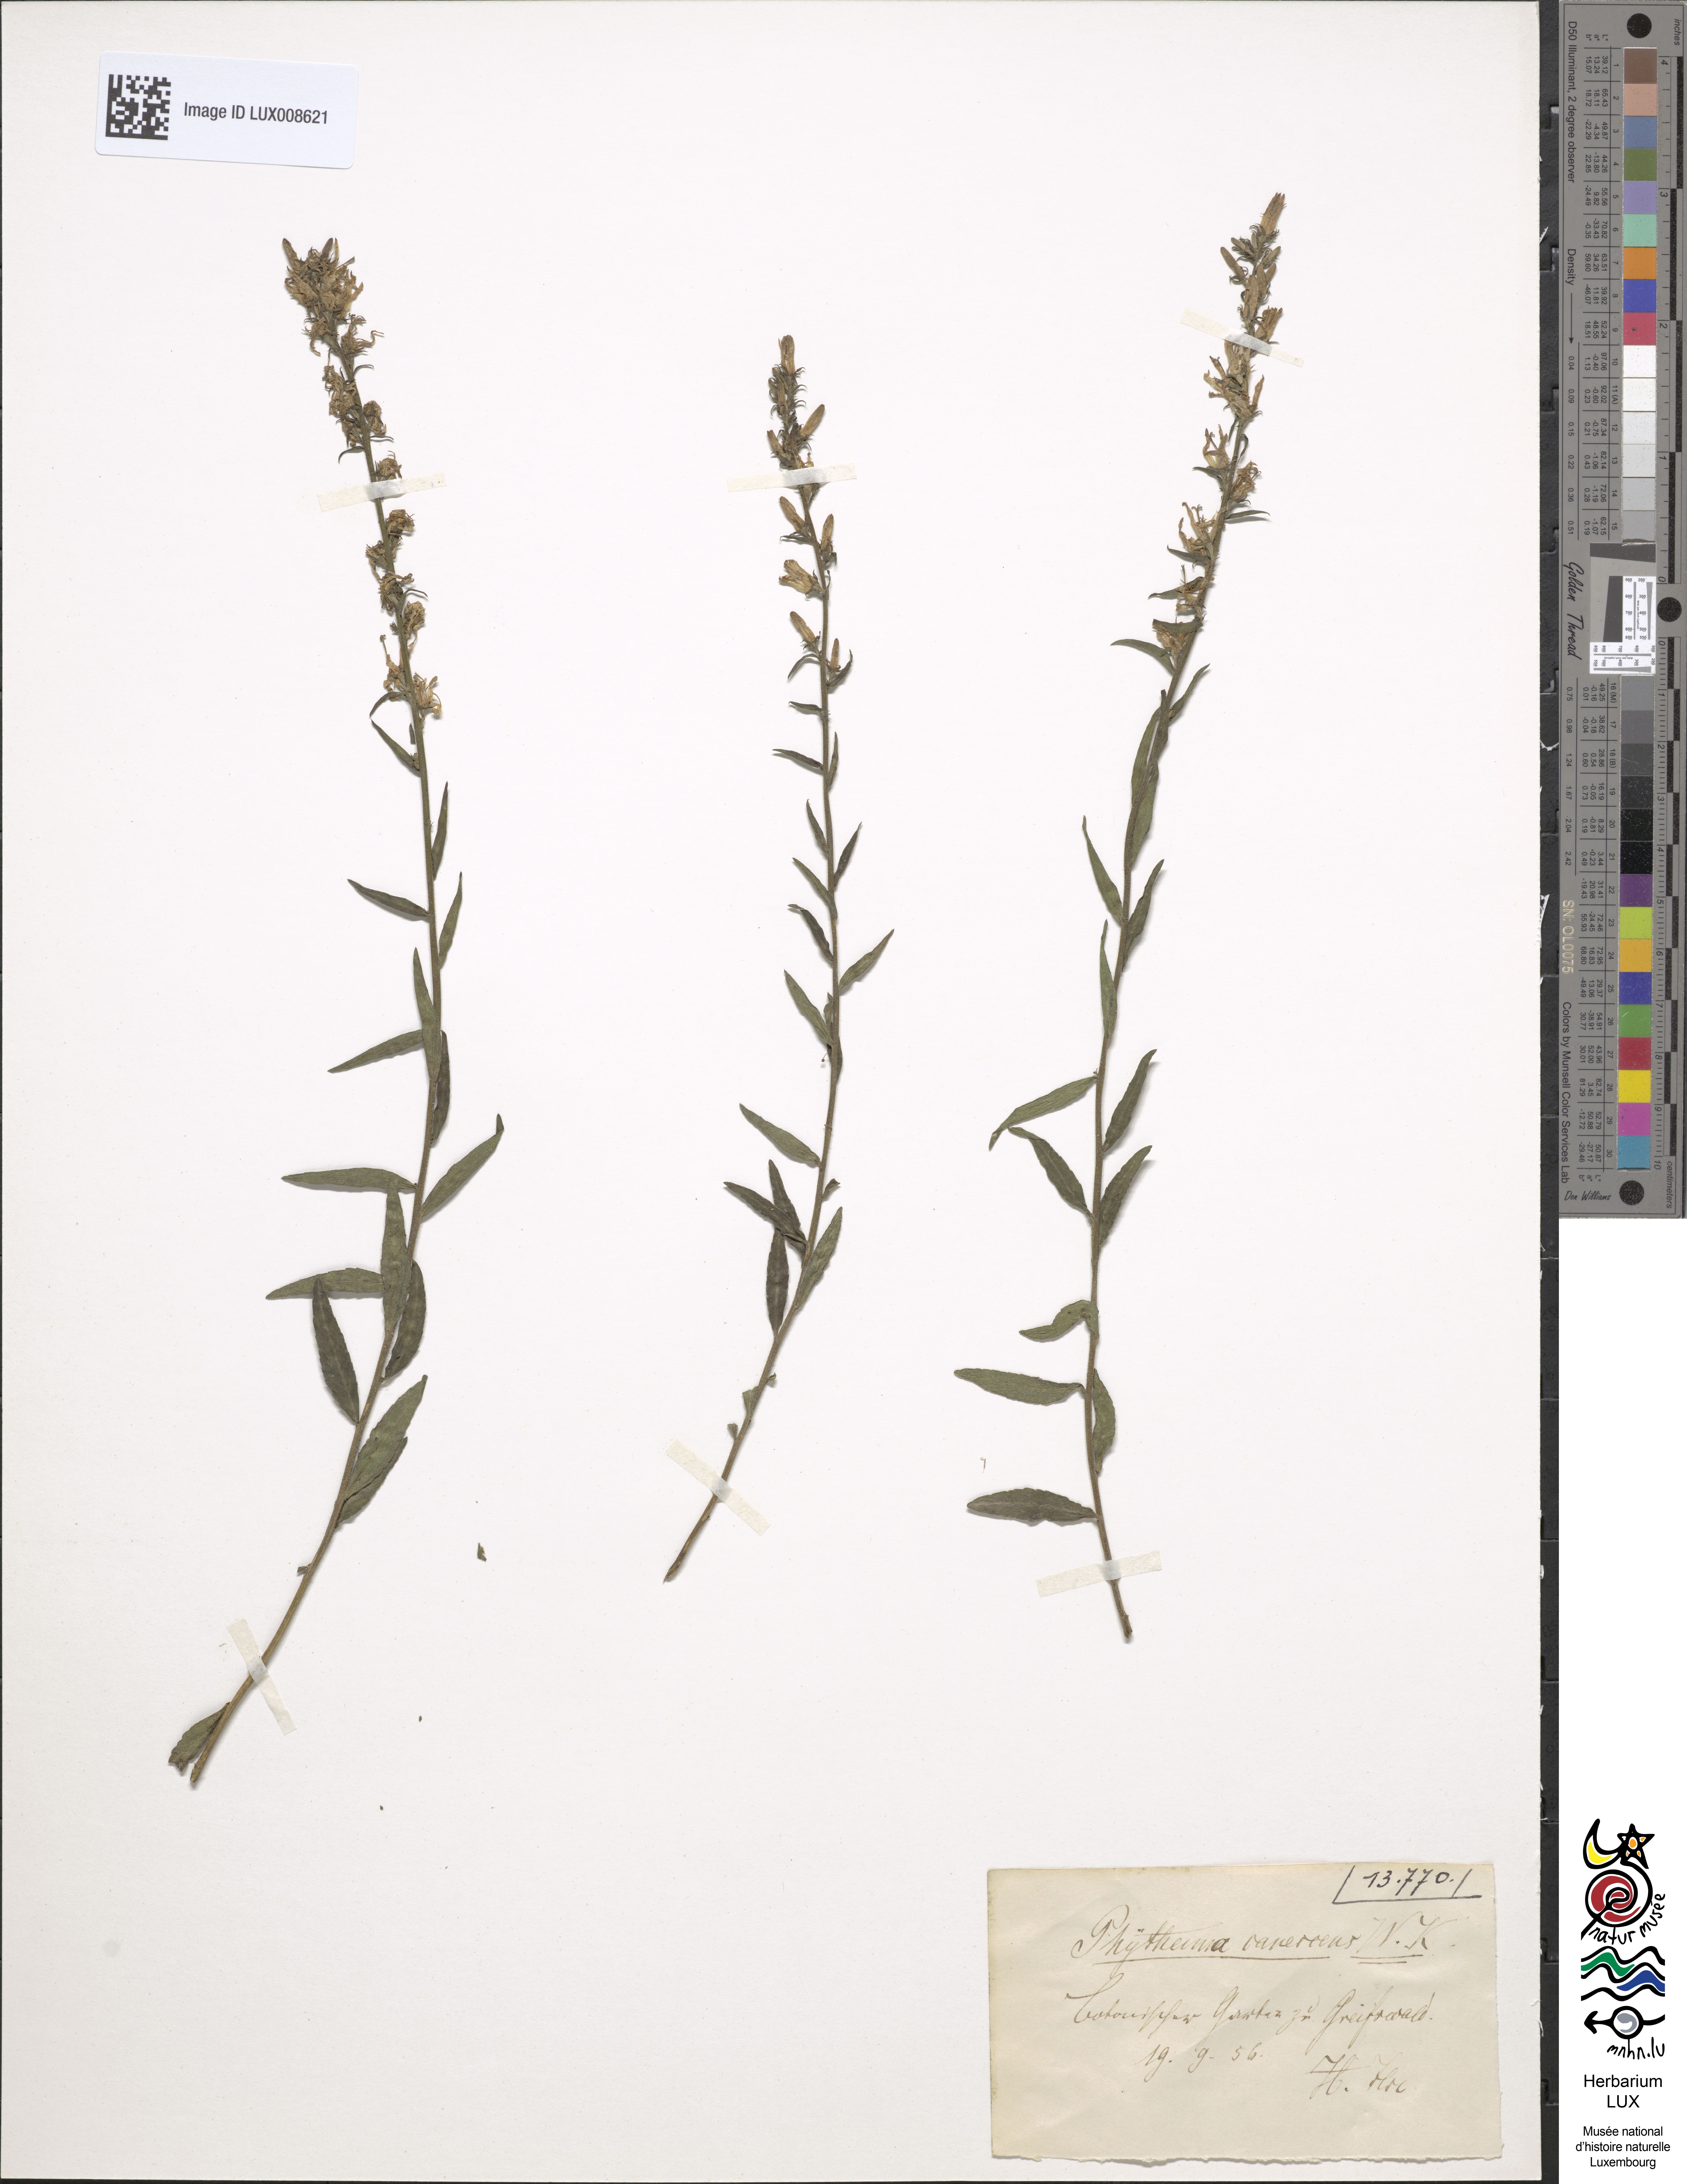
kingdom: Plantae
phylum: Tracheophyta
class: Magnoliopsida
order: Asterales
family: Campanulaceae
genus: Asyneuma
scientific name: Asyneuma canescens
